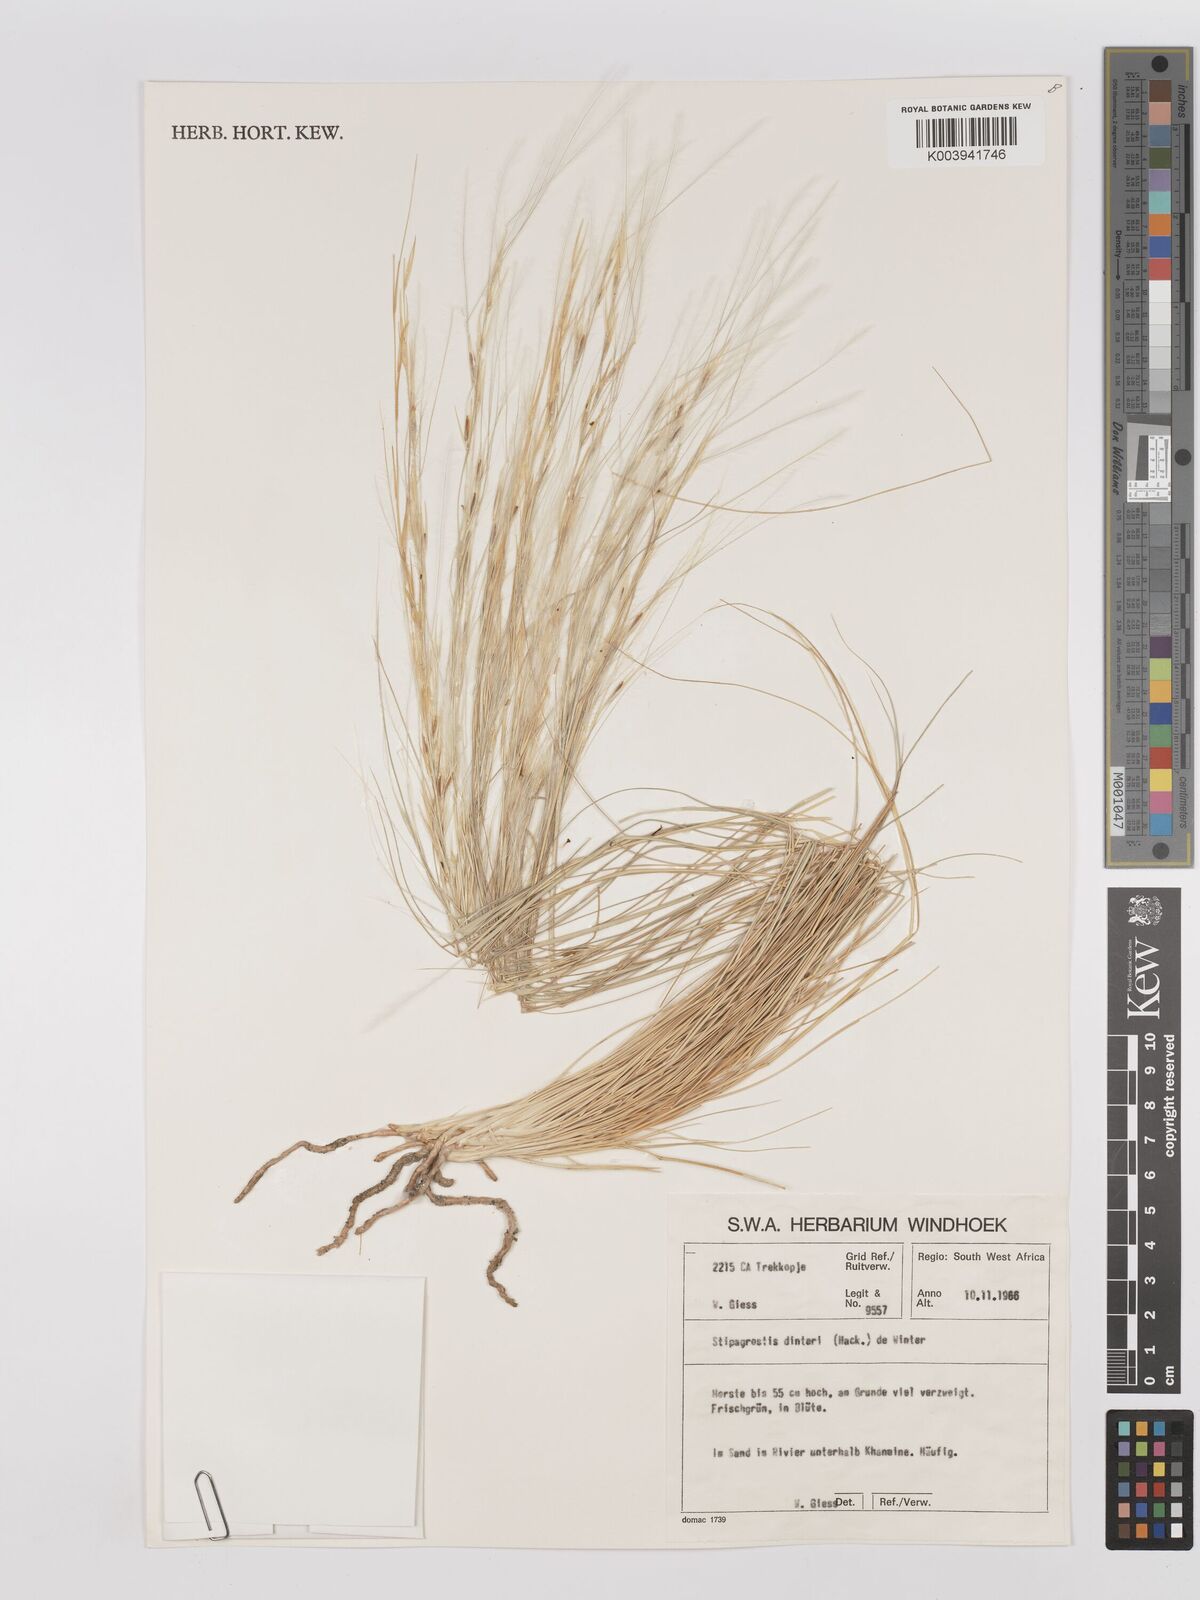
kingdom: Plantae
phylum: Tracheophyta
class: Liliopsida
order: Poales
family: Poaceae
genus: Stipagrostis
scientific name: Stipagrostis dinteri
